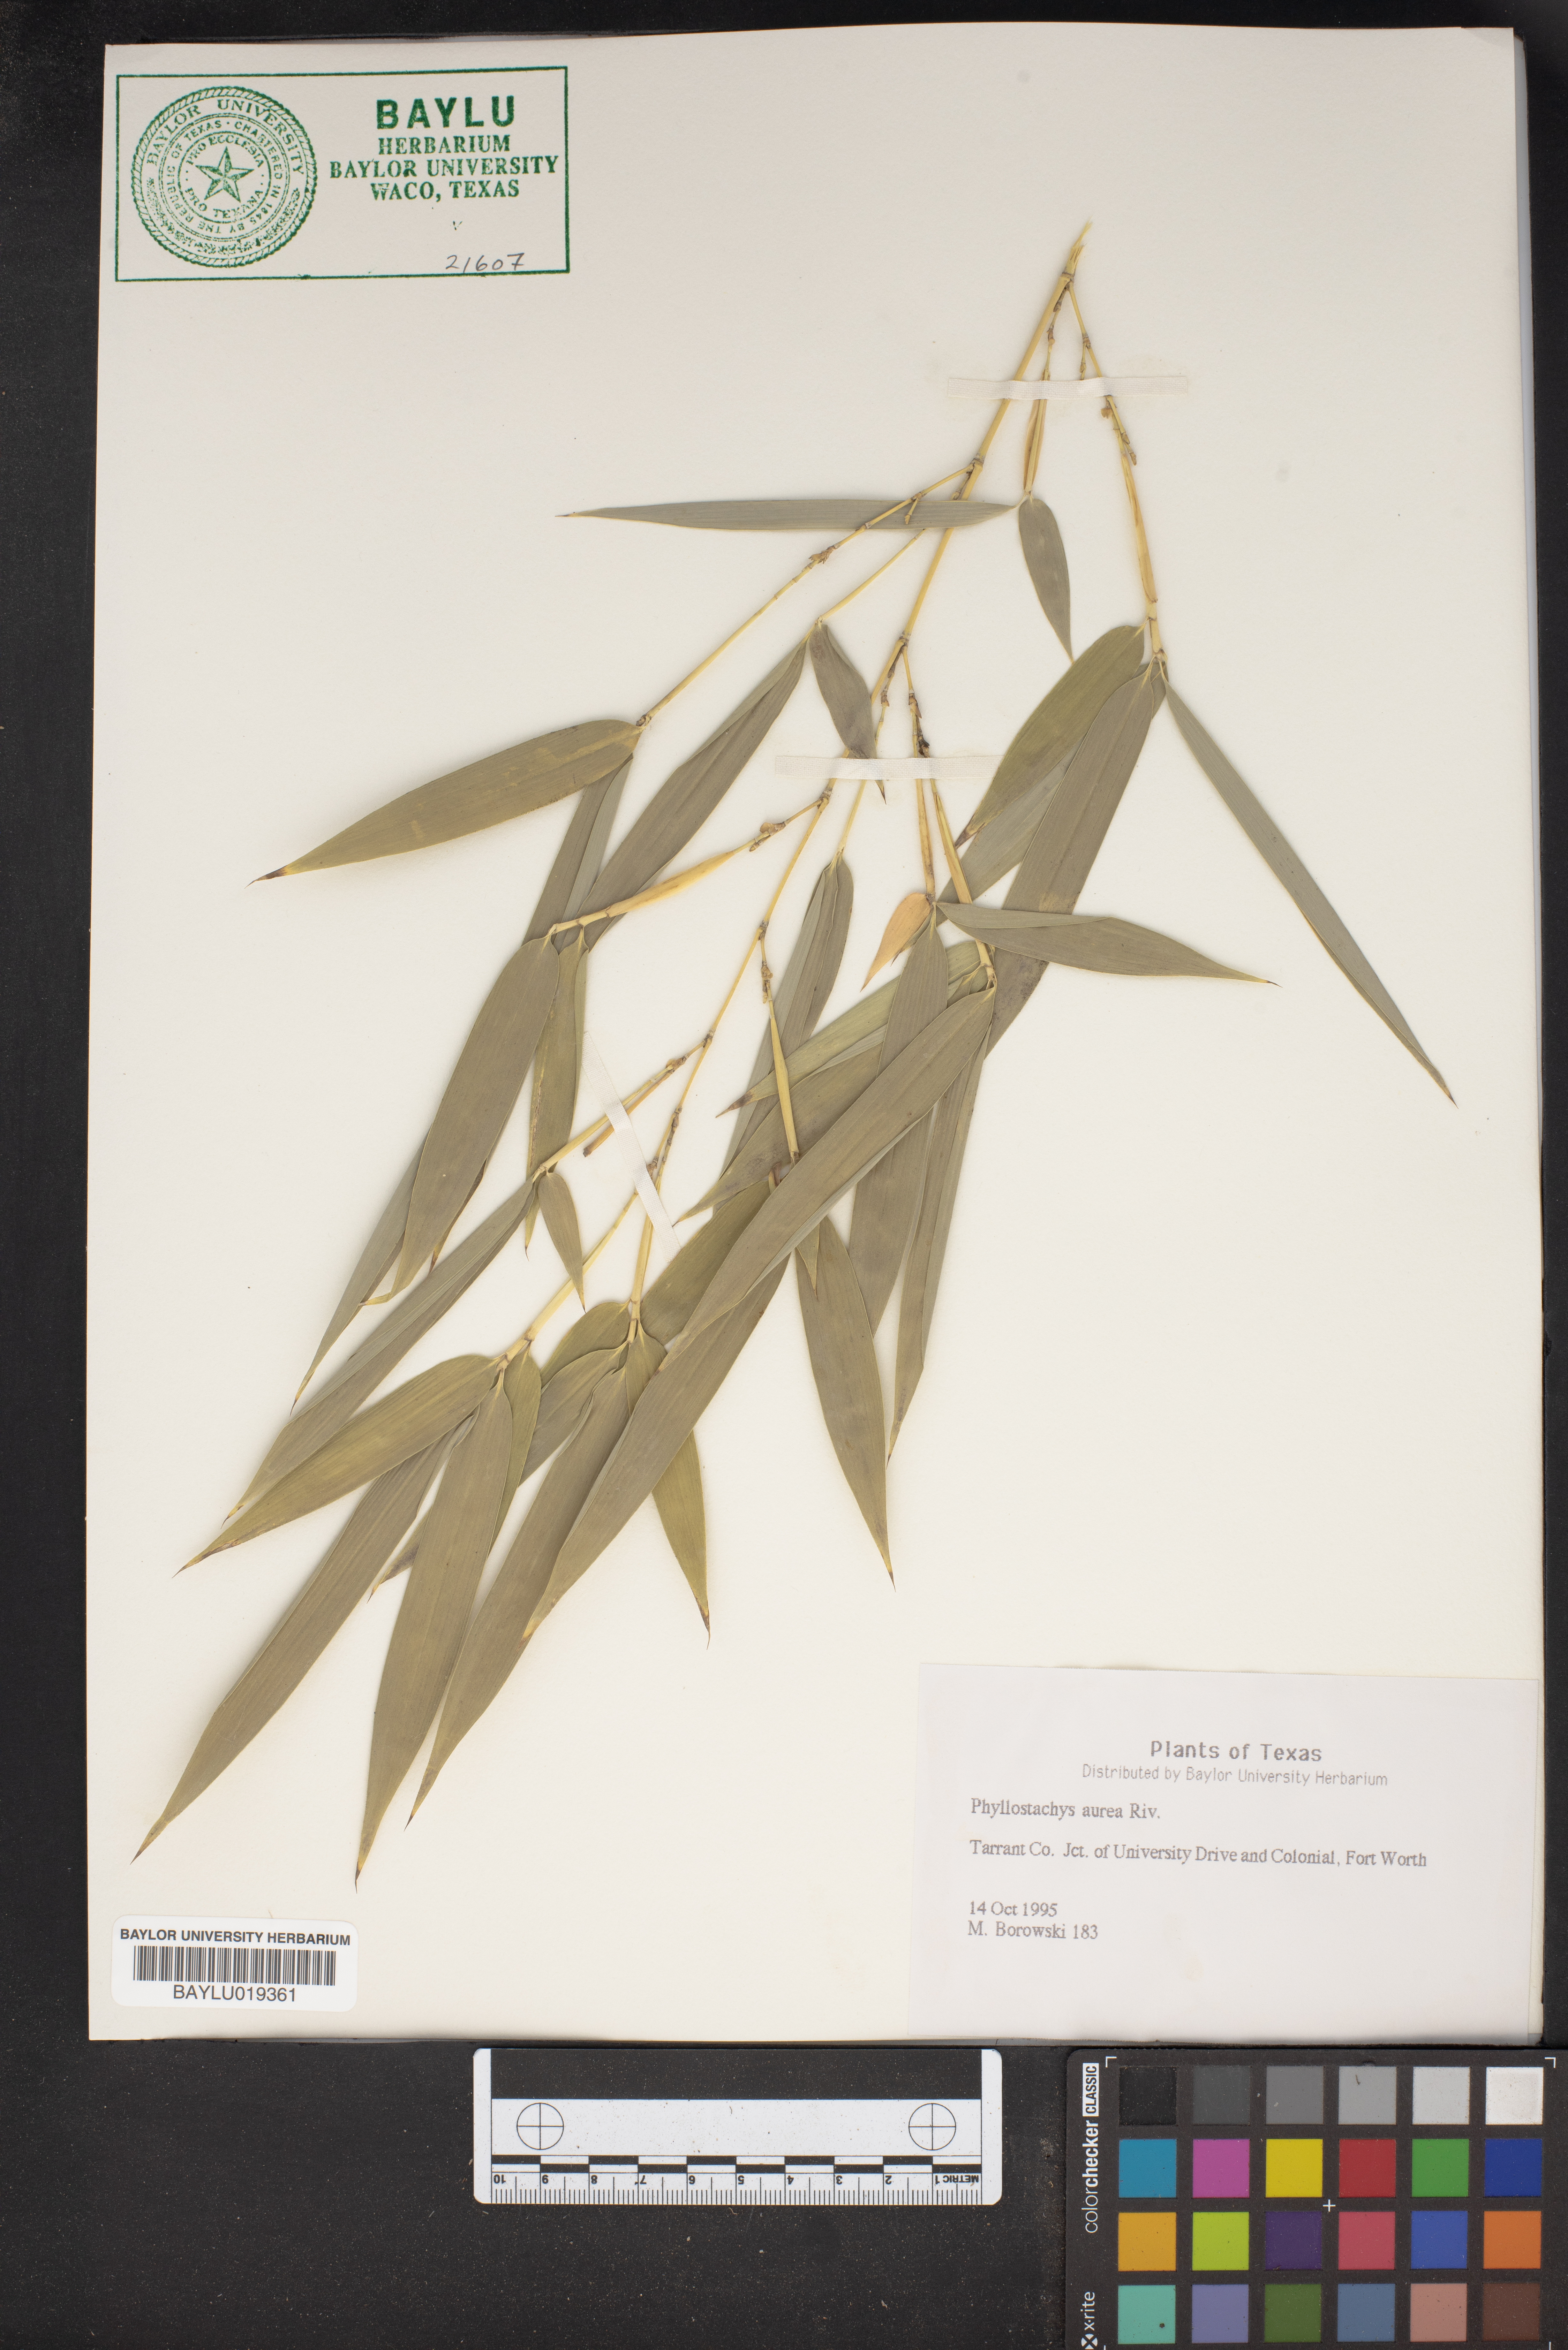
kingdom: Plantae
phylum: Tracheophyta
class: Liliopsida
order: Poales
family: Poaceae
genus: Phyllostachys
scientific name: Phyllostachys aurea
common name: Golden bamboo
